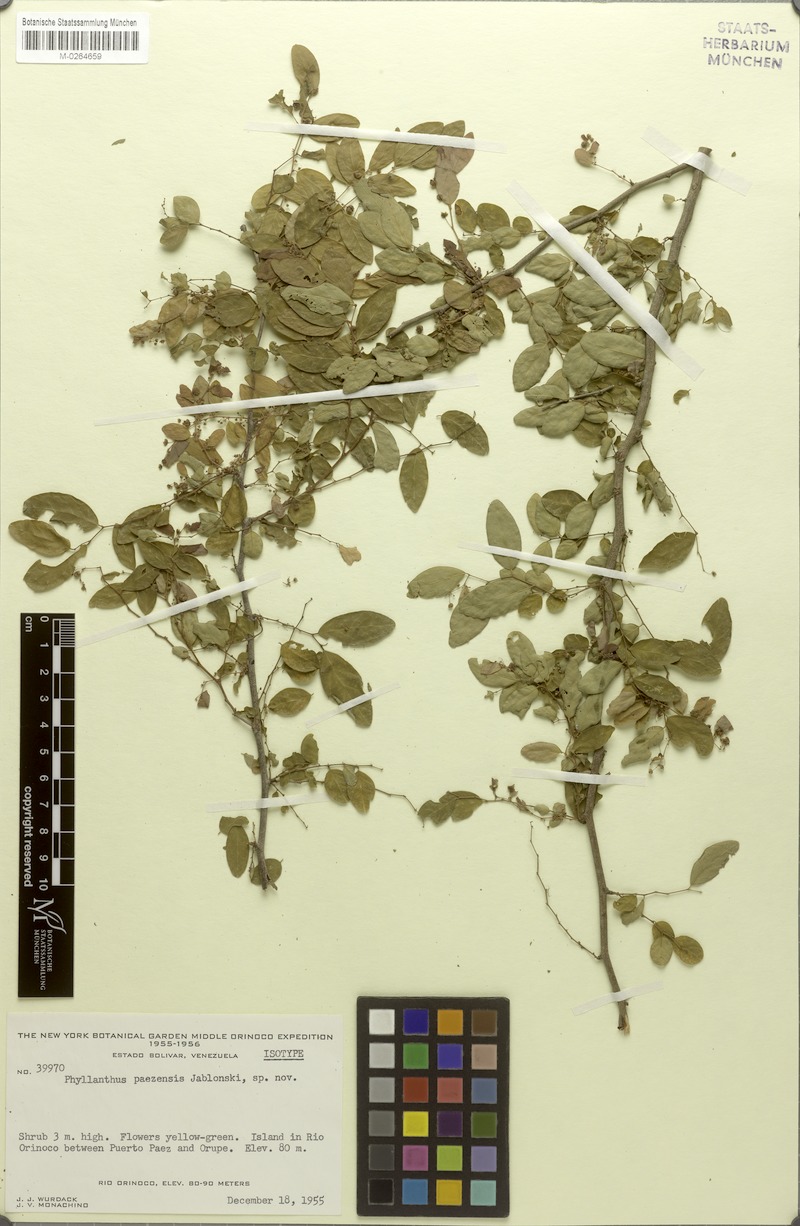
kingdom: Plantae
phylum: Tracheophyta
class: Magnoliopsida
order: Malpighiales
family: Phyllanthaceae
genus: Phyllanthus
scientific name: Phyllanthus paezensis
